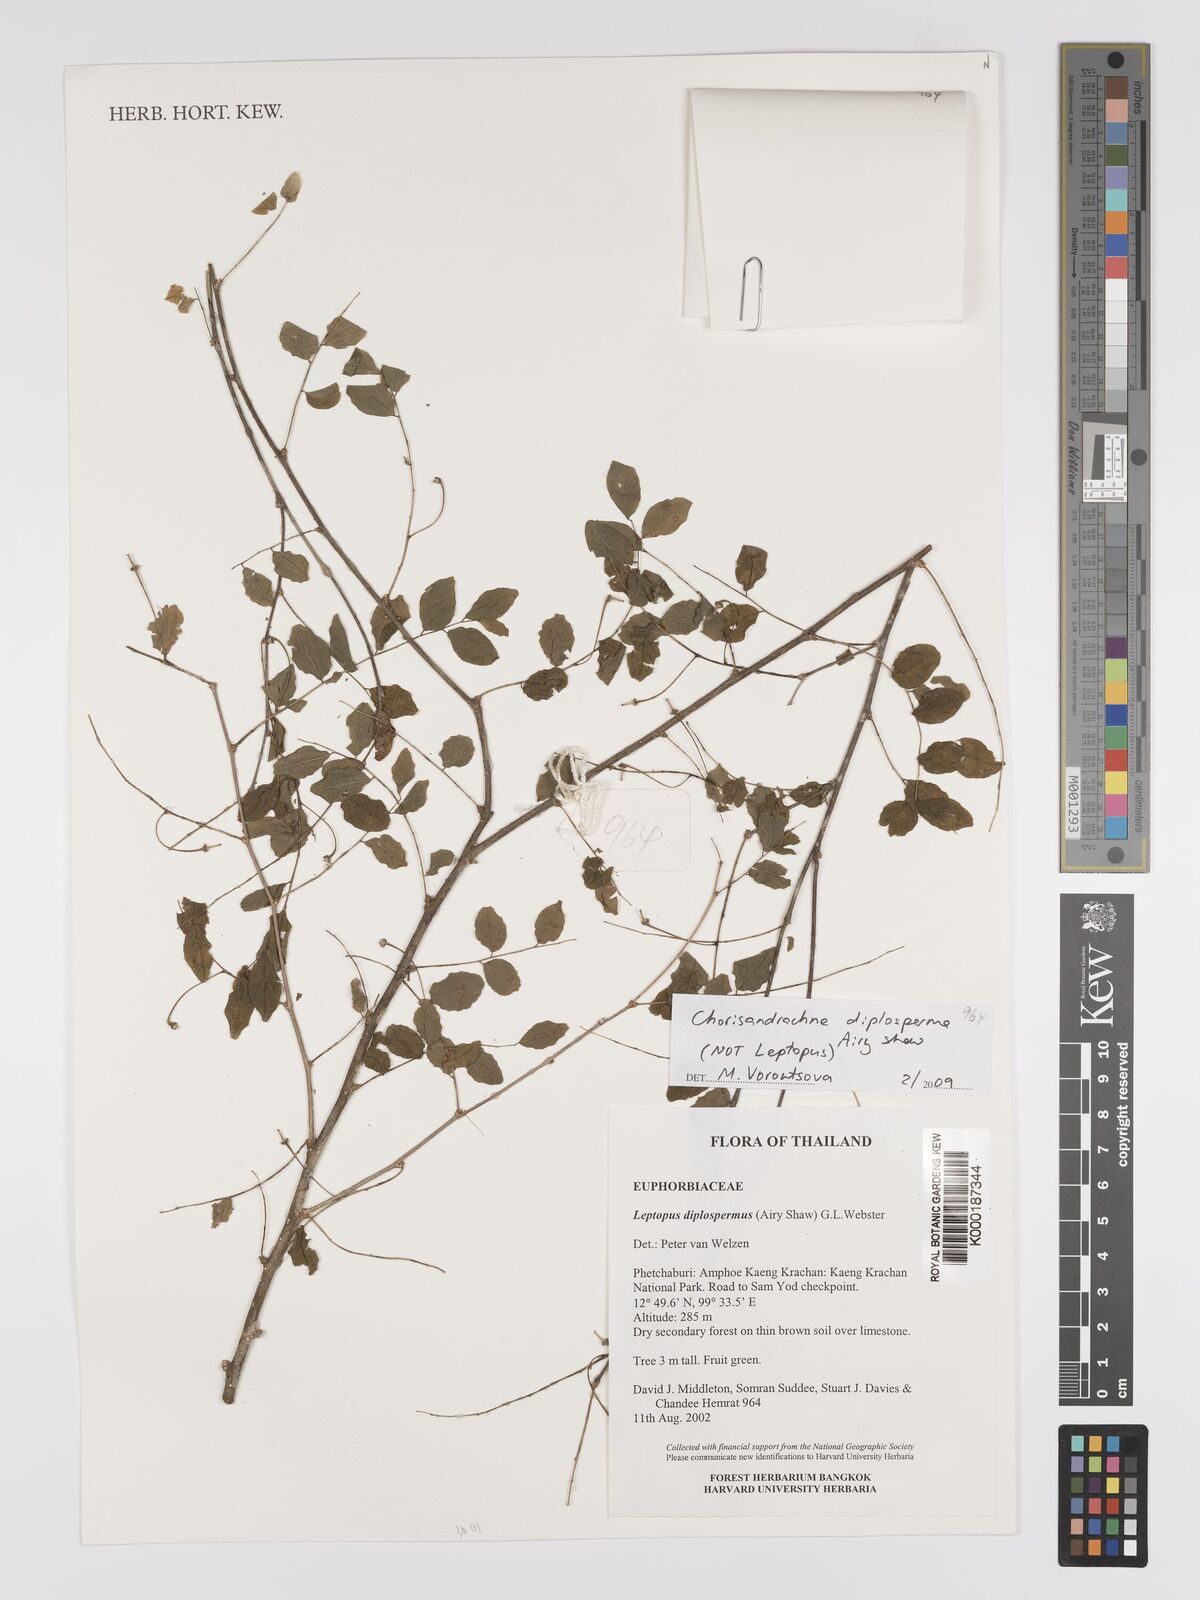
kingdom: Plantae
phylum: Tracheophyta
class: Magnoliopsida
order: Malpighiales
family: Phyllanthaceae
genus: Chorisandrachne
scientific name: Chorisandrachne diplosperma
